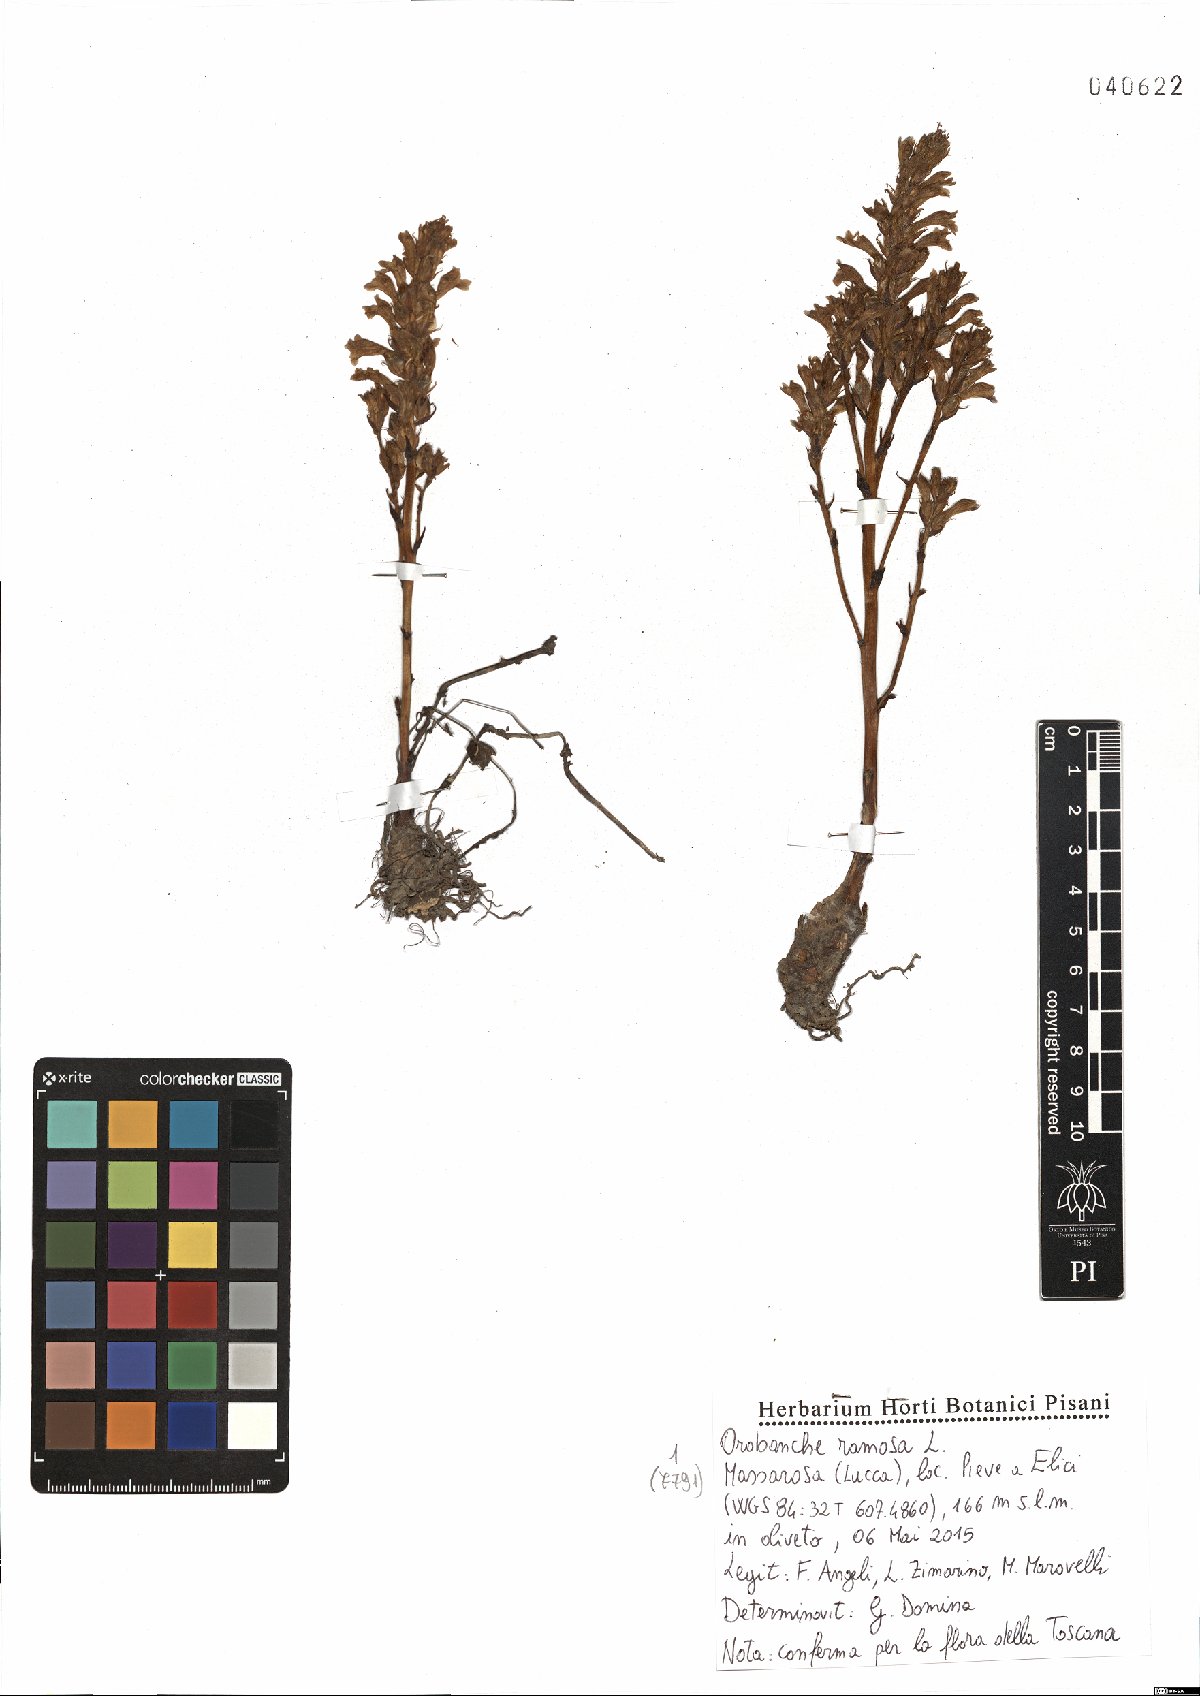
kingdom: Plantae
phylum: Tracheophyta
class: Magnoliopsida
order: Lamiales
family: Orobanchaceae
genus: Phelipanche
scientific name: Phelipanche ramosa
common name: Branched broomrape
